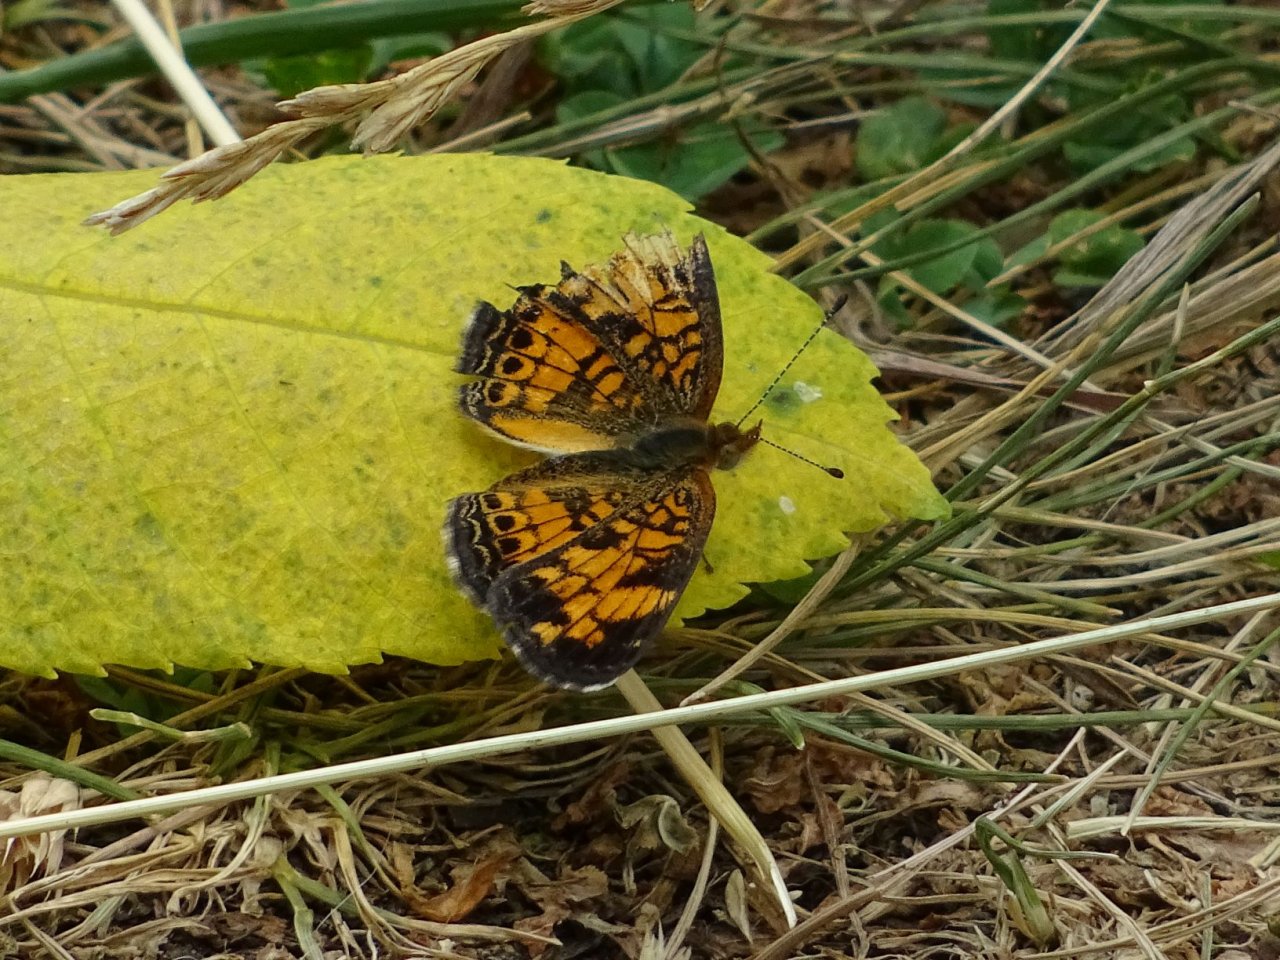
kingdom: Animalia
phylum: Arthropoda
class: Insecta
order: Lepidoptera
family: Nymphalidae
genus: Phyciodes
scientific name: Phyciodes tharos
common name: Pearl Crescent
